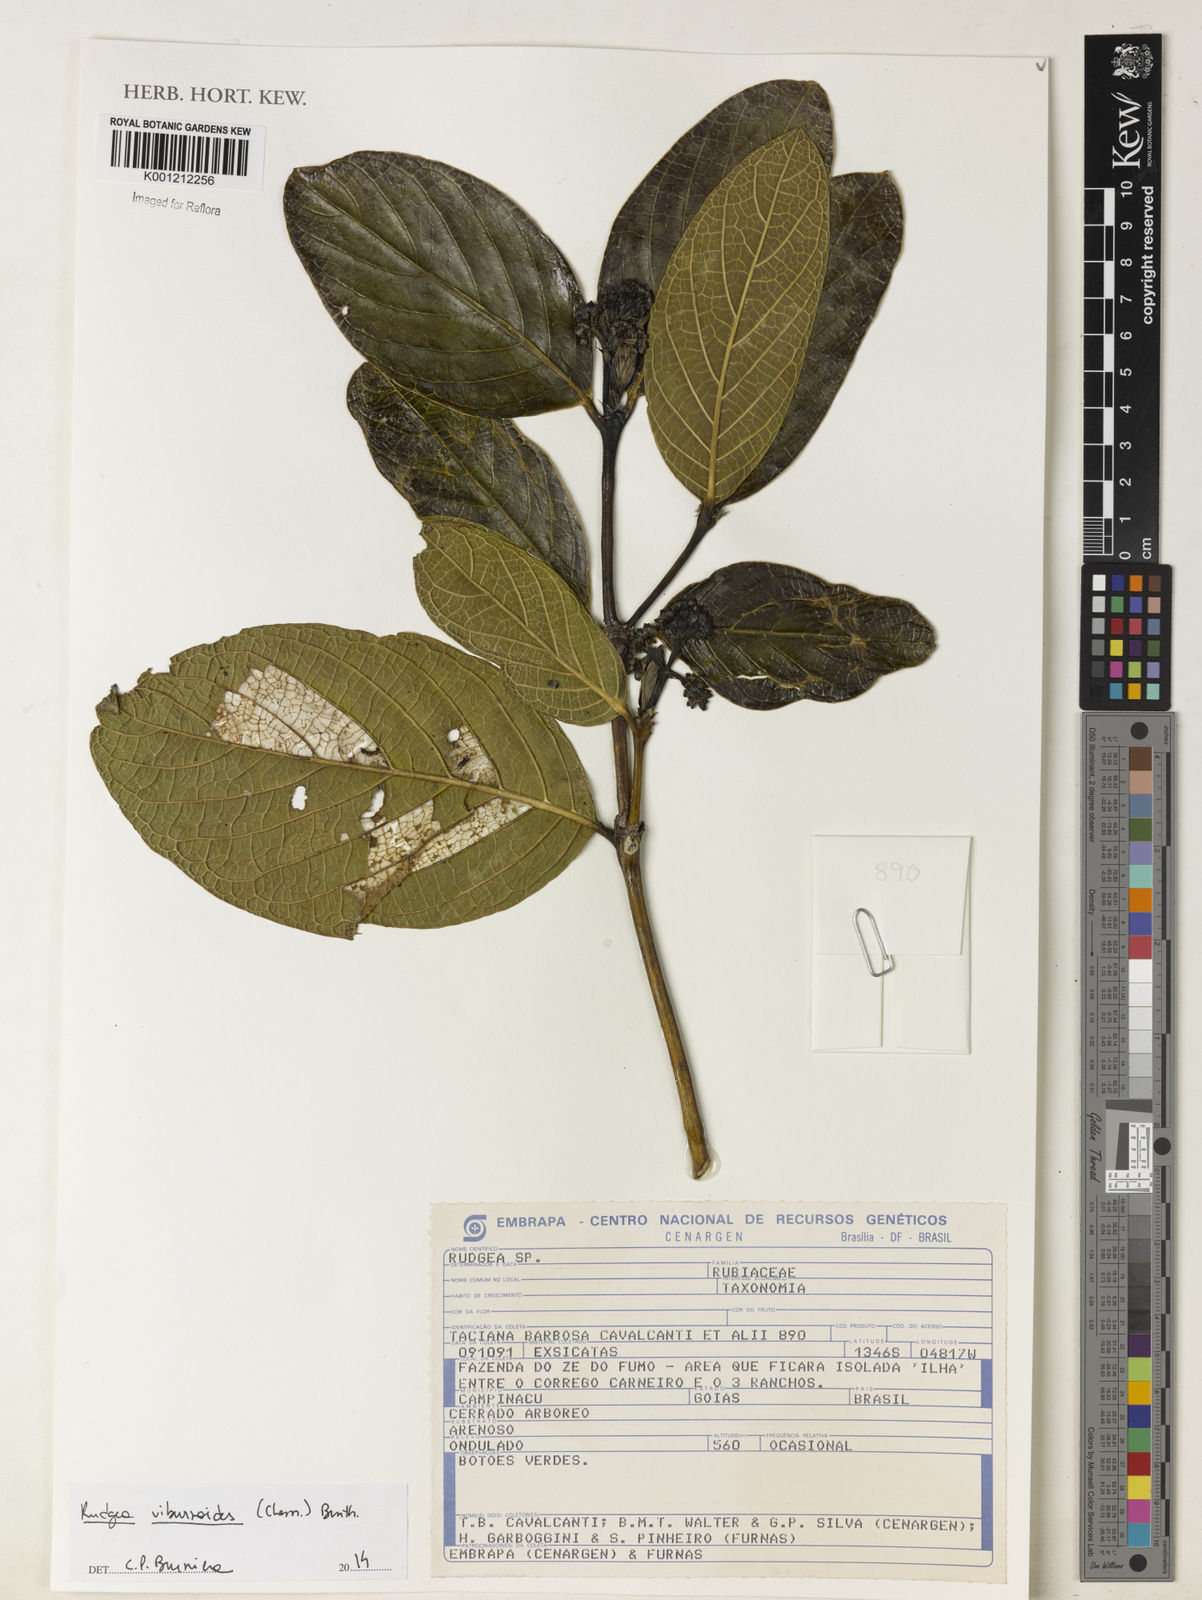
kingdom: Plantae
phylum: Tracheophyta
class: Magnoliopsida
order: Gentianales
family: Rubiaceae
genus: Rudgea
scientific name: Rudgea viburnoides
